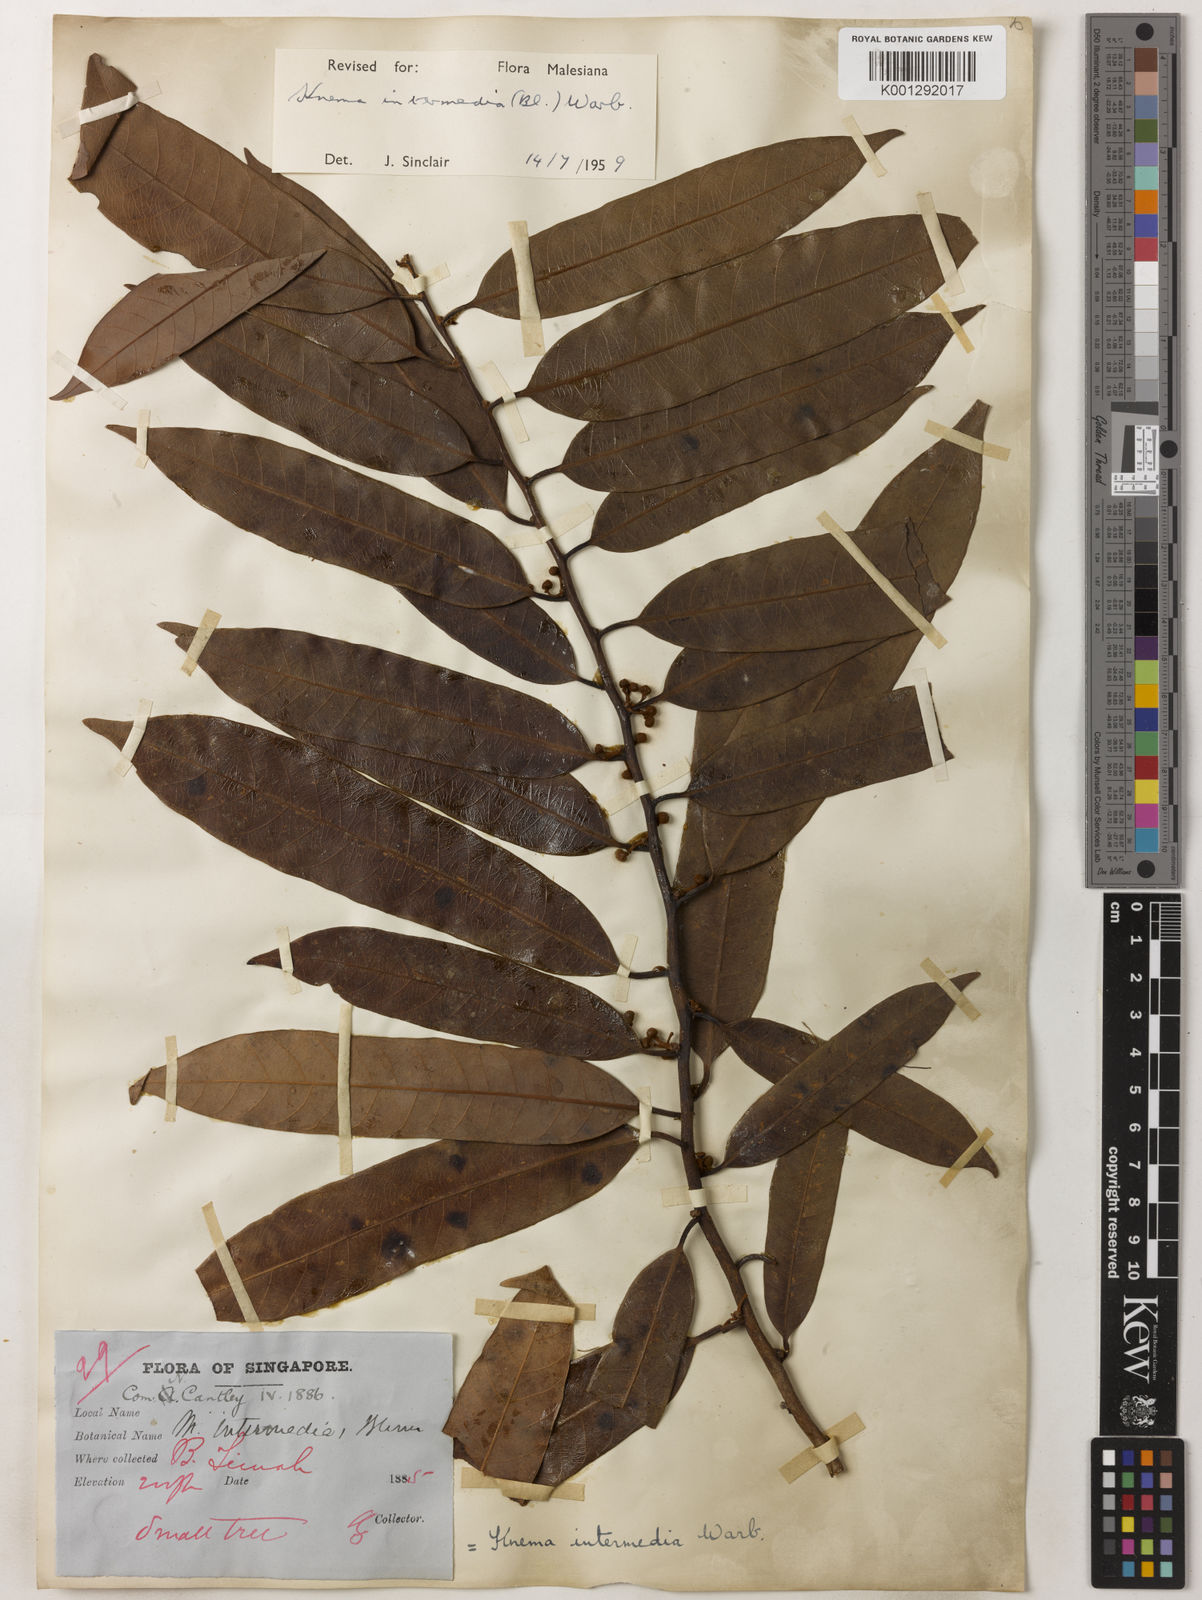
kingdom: Plantae
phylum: Tracheophyta
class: Magnoliopsida
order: Magnoliales
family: Myristicaceae
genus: Knema
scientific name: Knema intermedia
